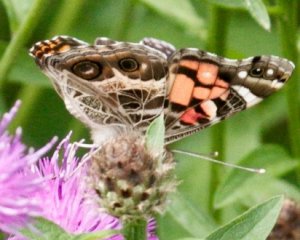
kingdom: Animalia
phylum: Arthropoda
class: Insecta
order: Lepidoptera
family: Nymphalidae
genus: Vanessa
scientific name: Vanessa virginiensis
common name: American Lady
